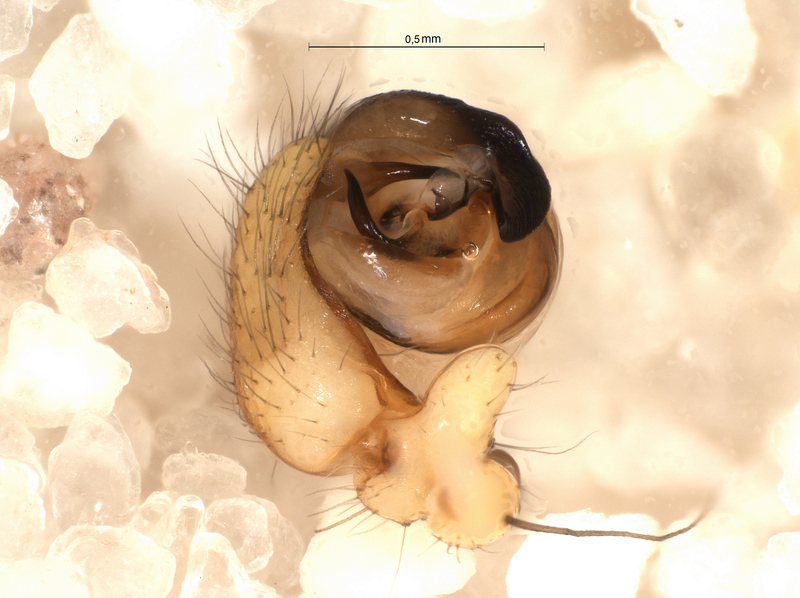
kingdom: Animalia
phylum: Arthropoda
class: Arachnida
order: Araneae
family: Araneidae
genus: Araniella
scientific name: Araniella cucurbitina
